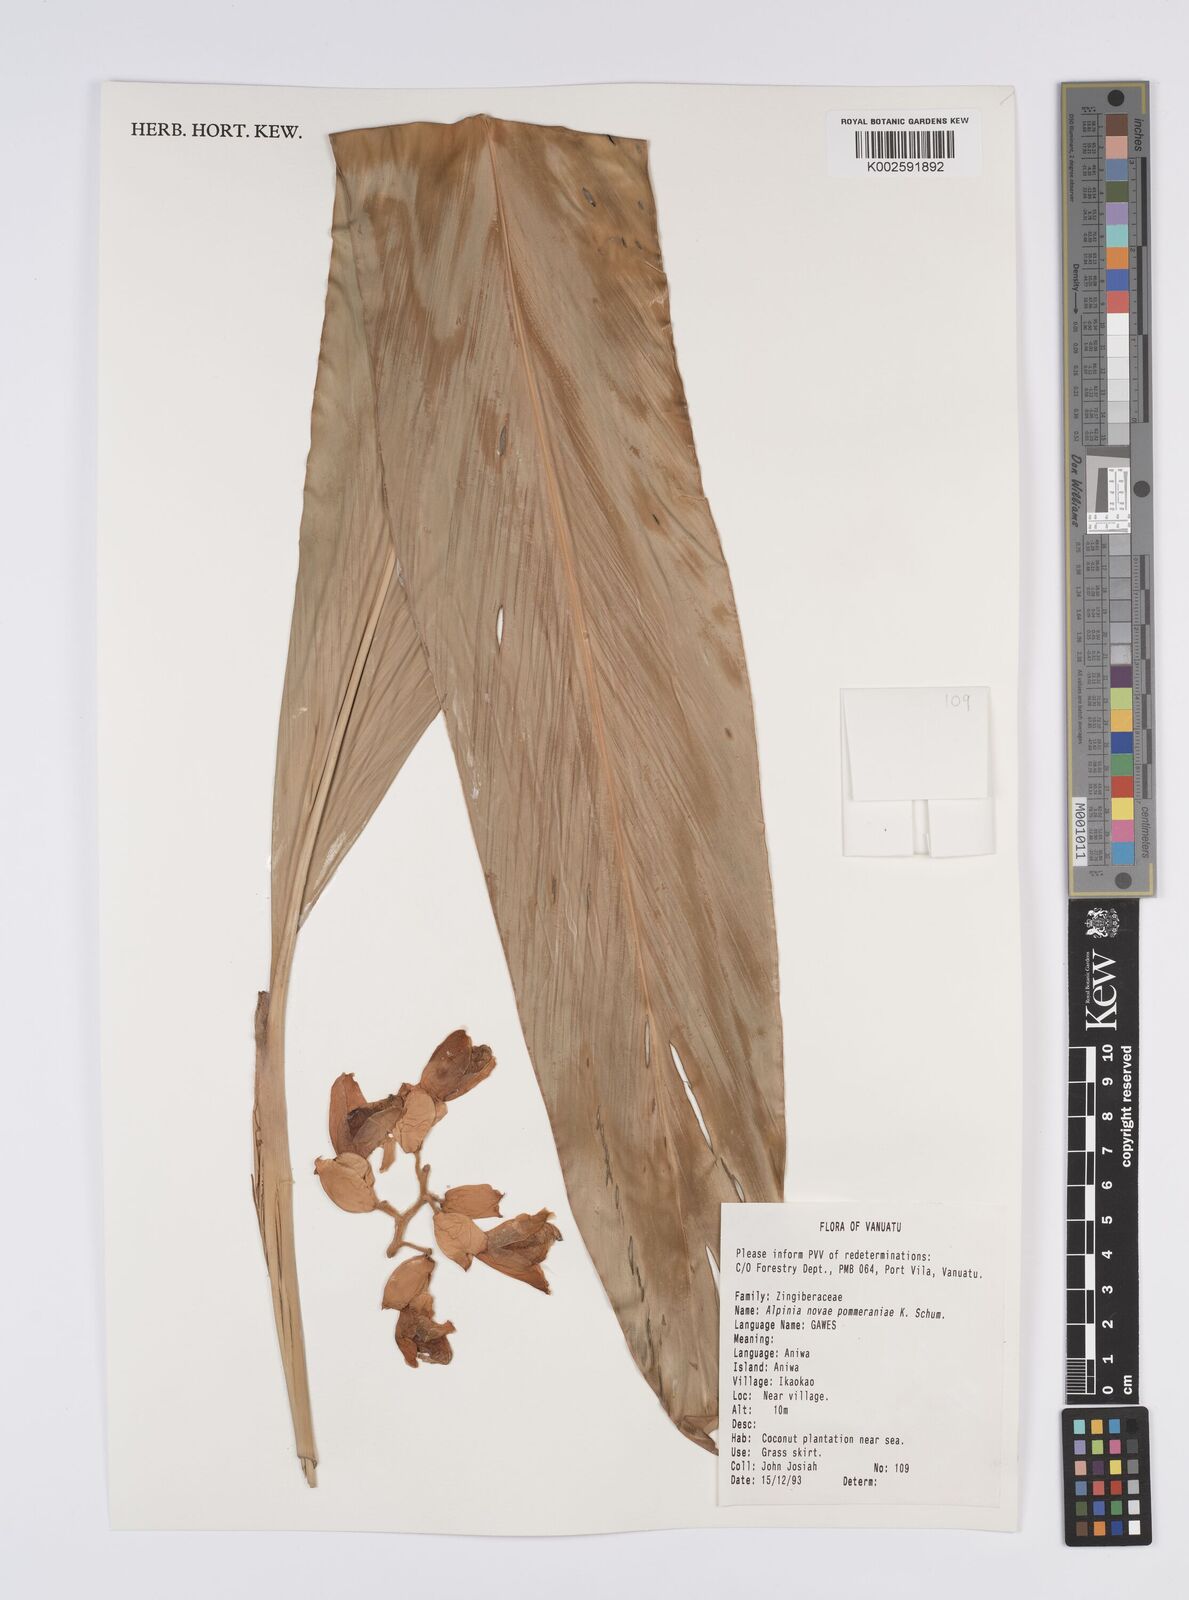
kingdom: Plantae
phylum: Tracheophyta
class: Liliopsida
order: Zingiberales
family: Zingiberaceae
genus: Alpinia
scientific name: Alpinia novae-pommeraniae
